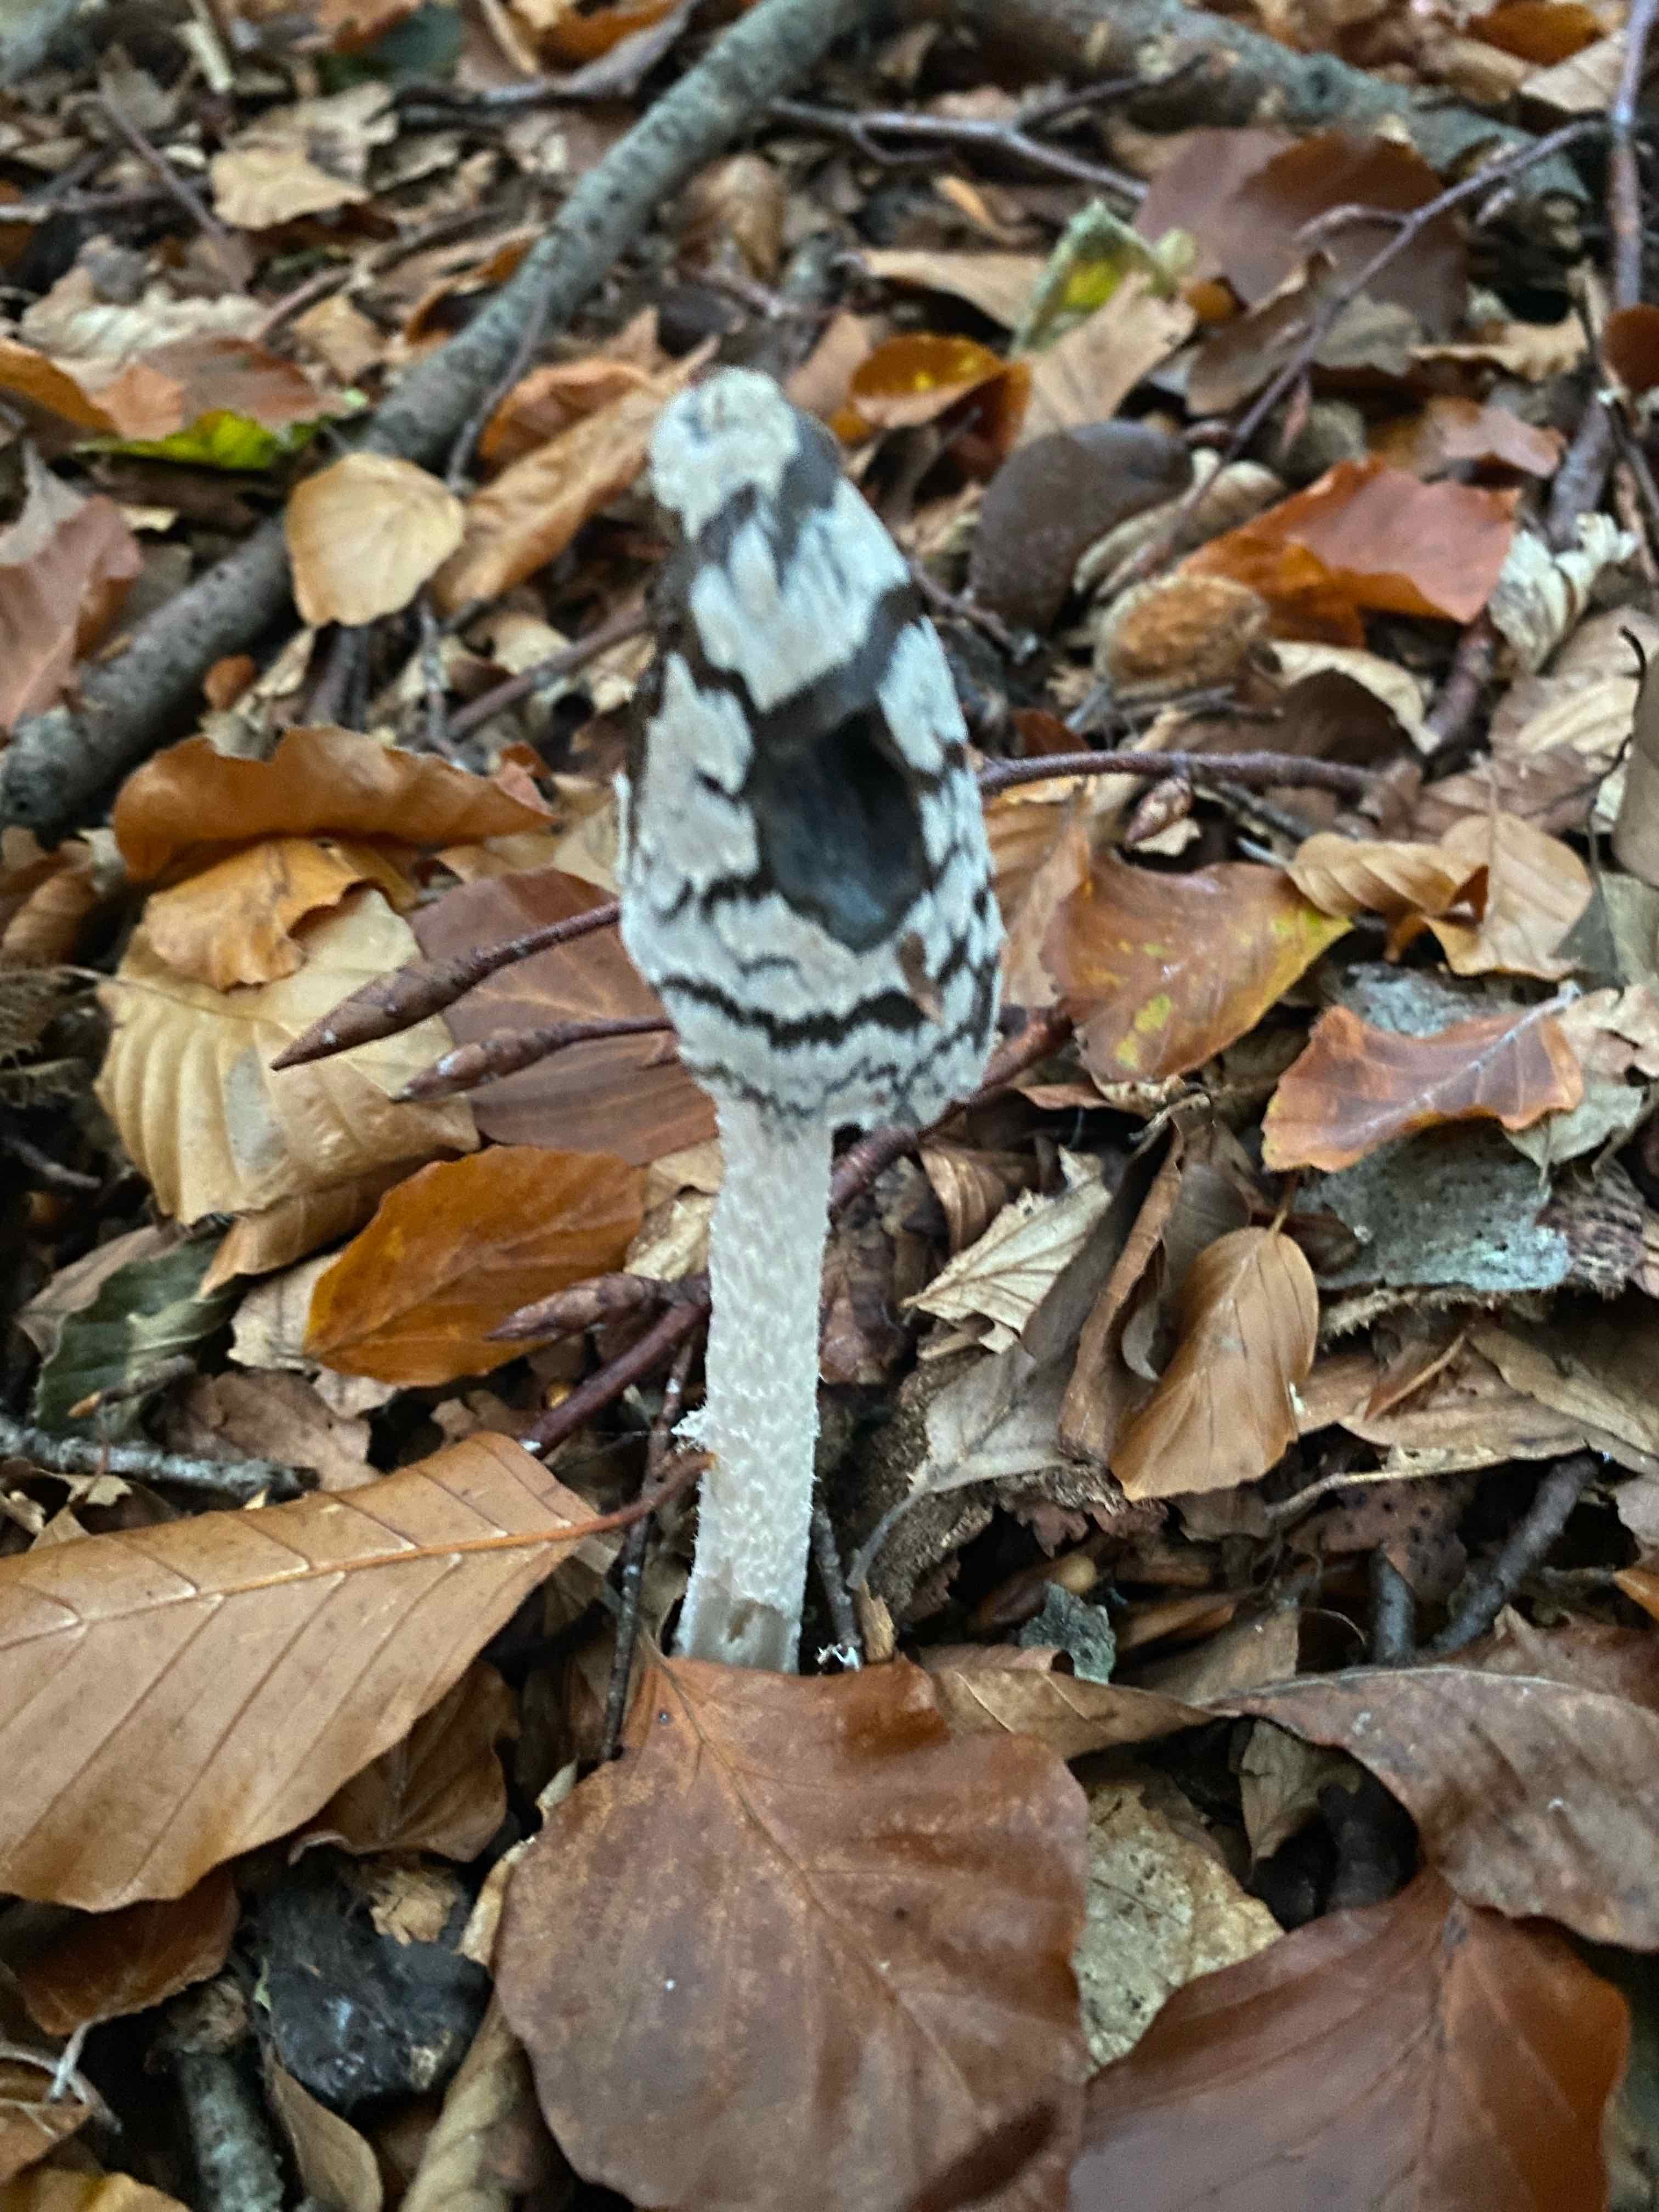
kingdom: Fungi
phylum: Basidiomycota
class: Agaricomycetes
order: Agaricales
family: Psathyrellaceae
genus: Coprinopsis
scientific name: Coprinopsis picacea
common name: skade-blækhat
